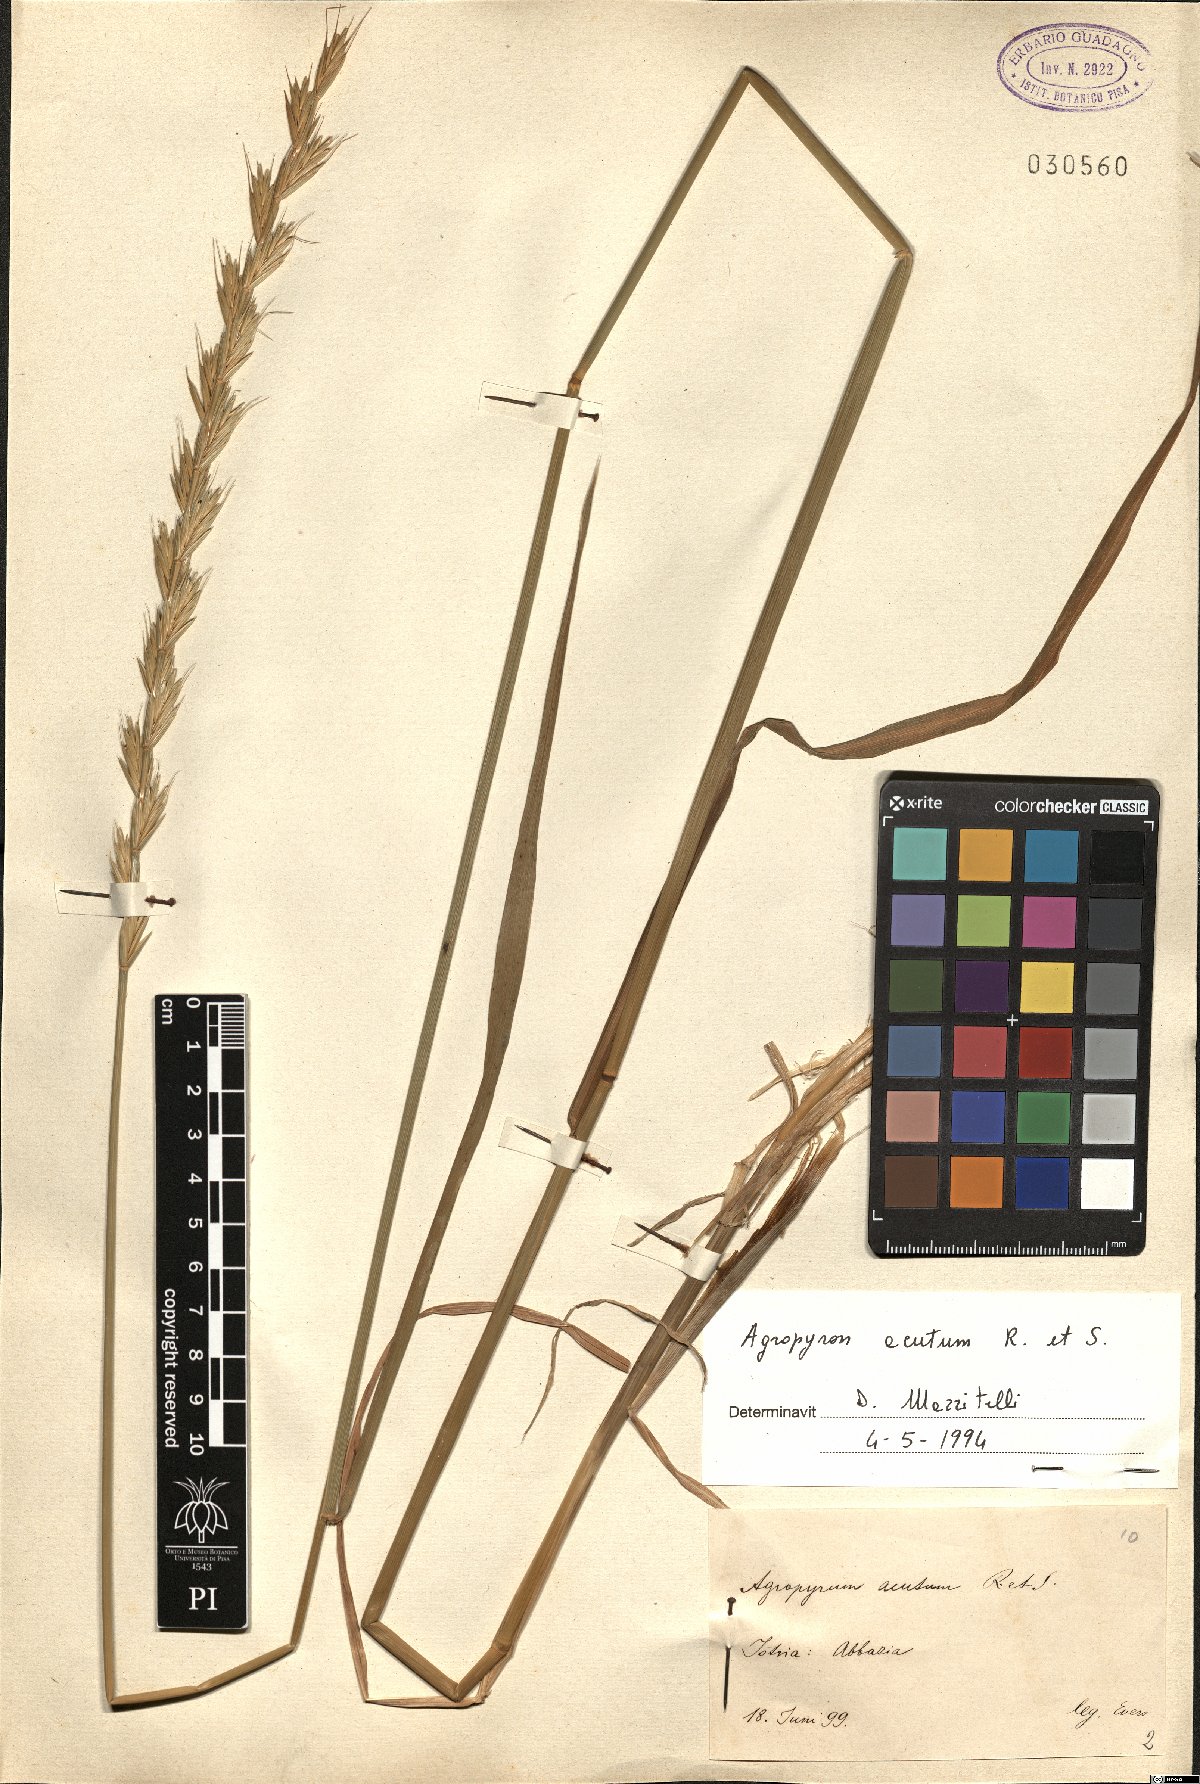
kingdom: Plantae
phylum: Tracheophyta
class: Liliopsida
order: Poales
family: Poaceae
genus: Thinopyrum
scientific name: Thinopyrum acutum
